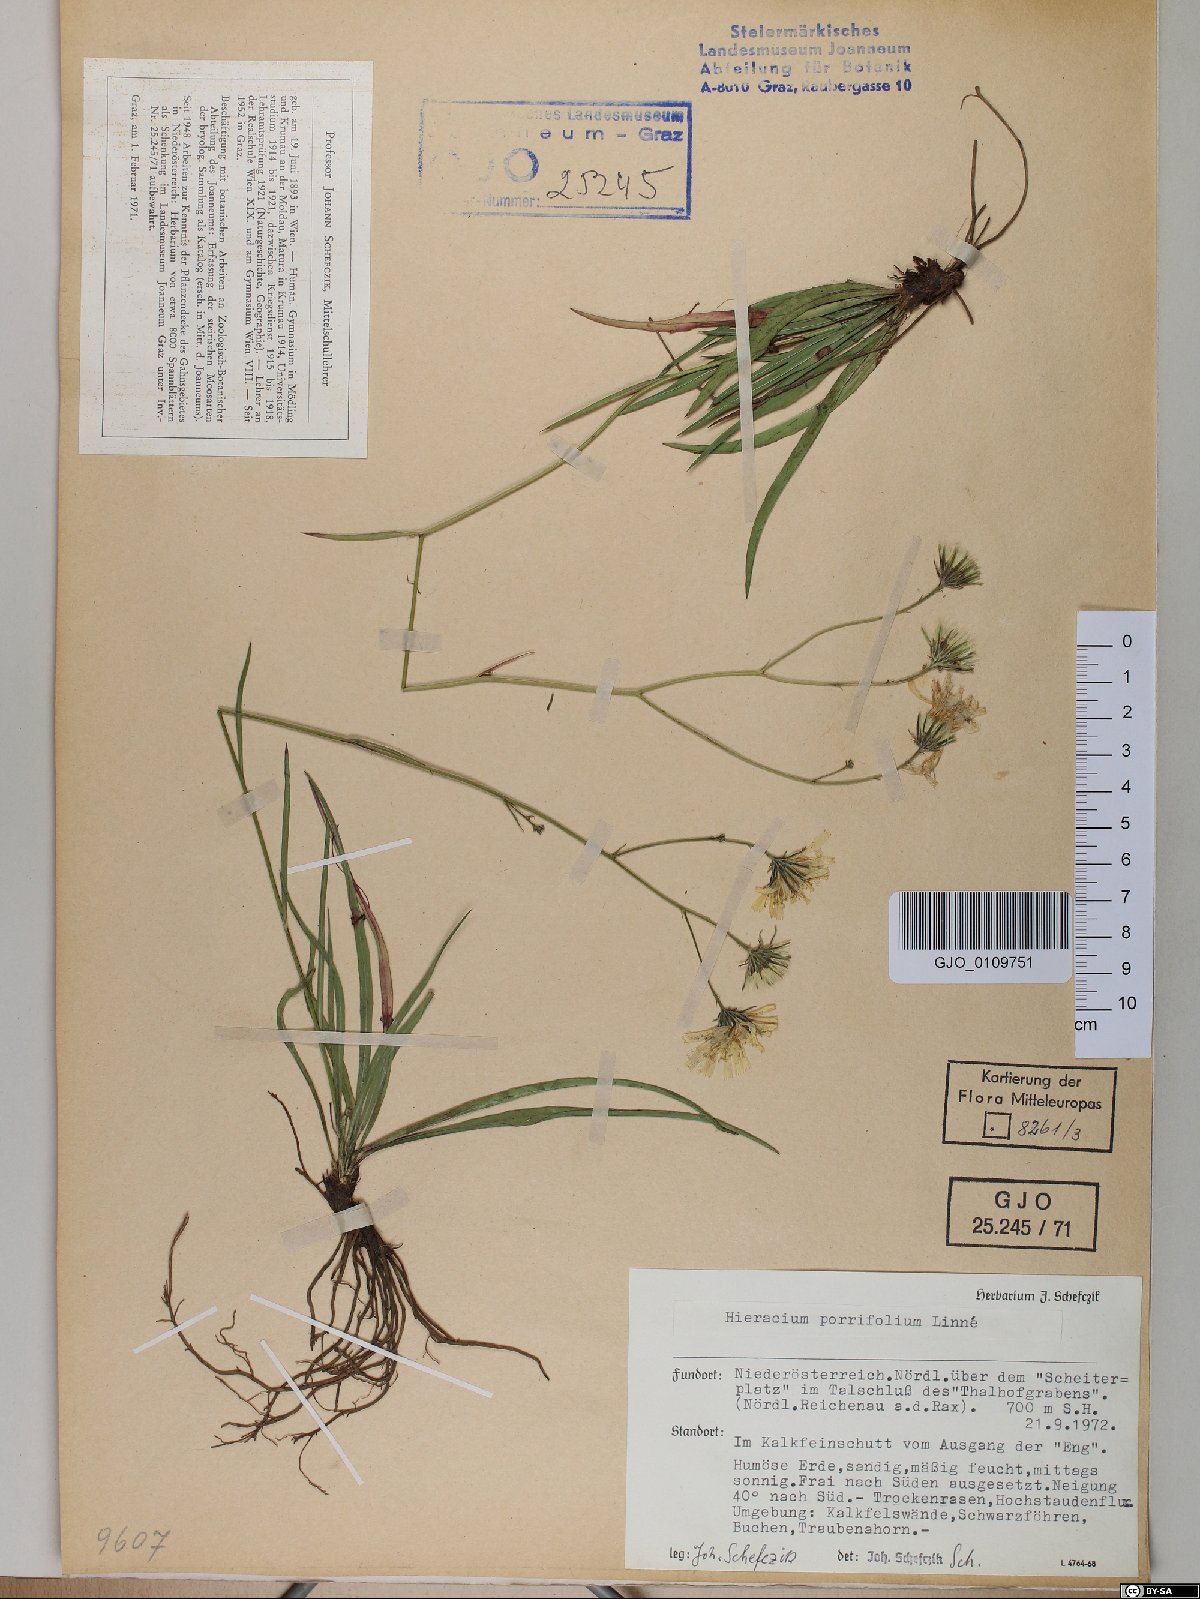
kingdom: Plantae
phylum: Tracheophyta
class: Magnoliopsida
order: Asterales
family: Asteraceae
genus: Hieracium
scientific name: Hieracium porrifolium
